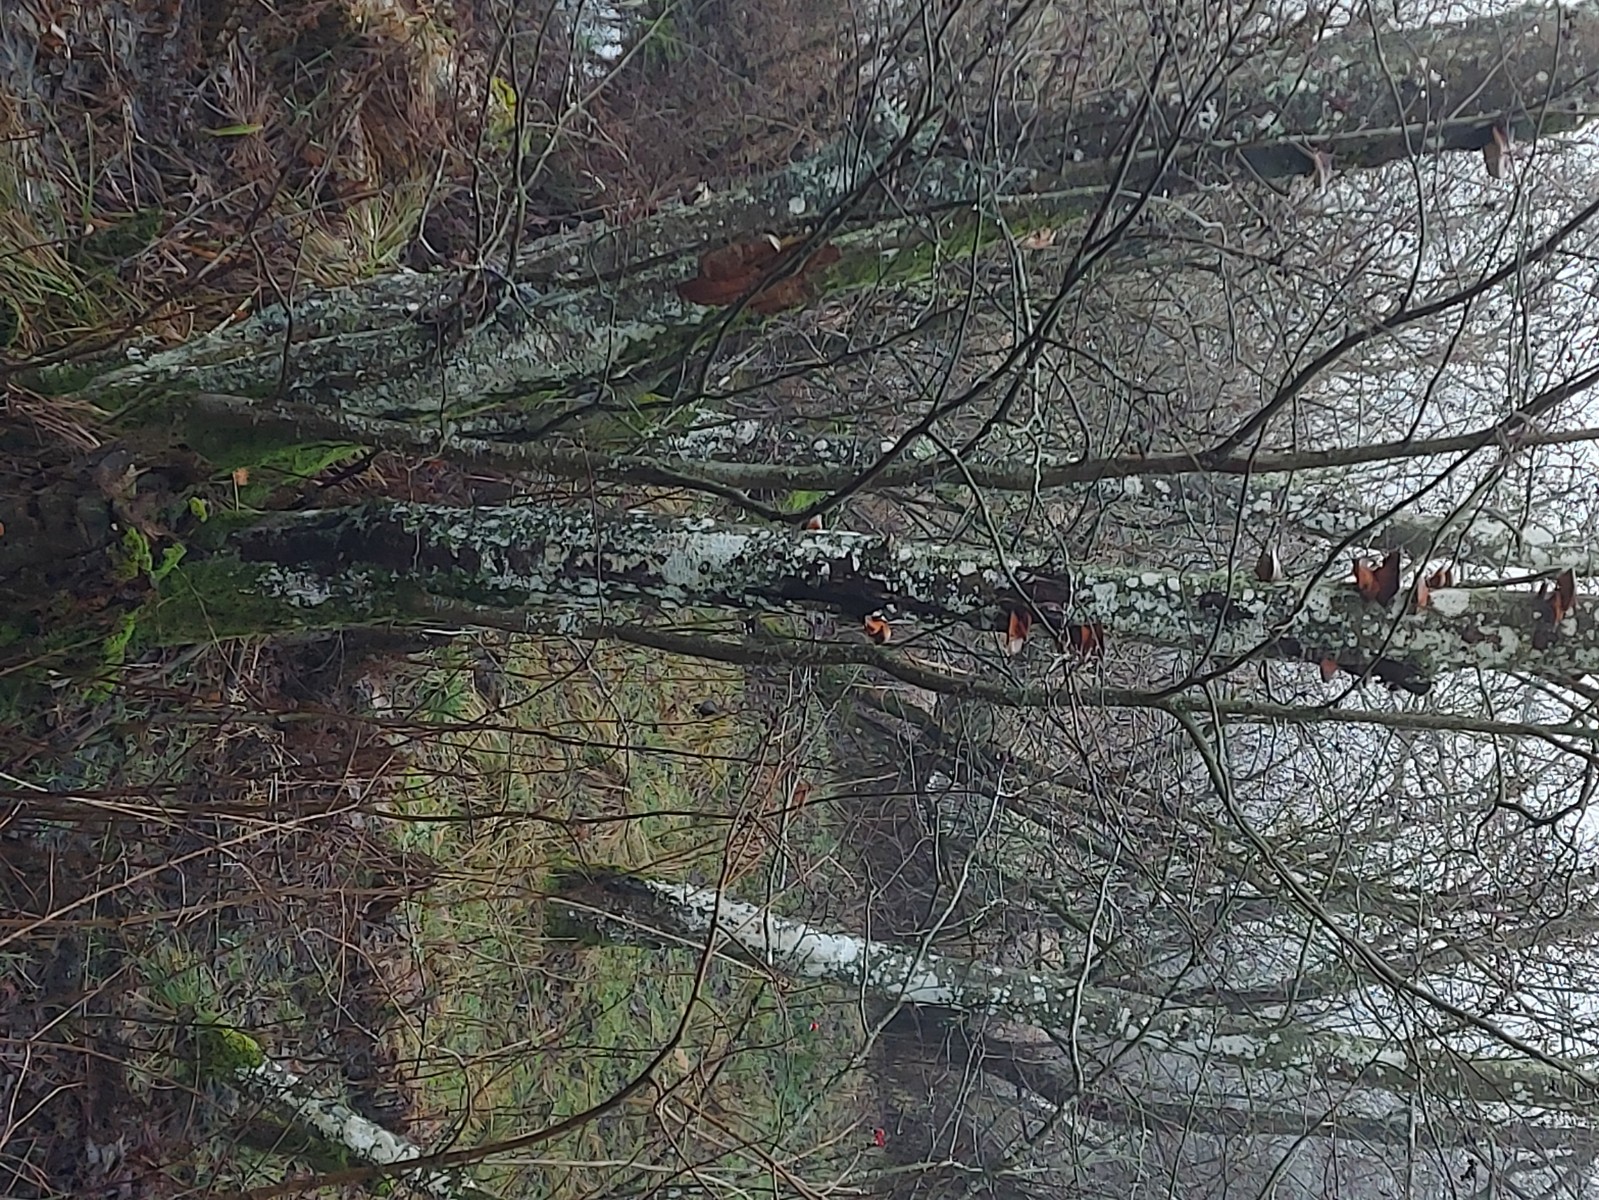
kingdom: Fungi
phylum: Basidiomycota
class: Agaricomycetes
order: Agaricales
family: Sarcomyxaceae
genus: Sarcomyxa
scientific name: Sarcomyxa serotina
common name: gummihat
